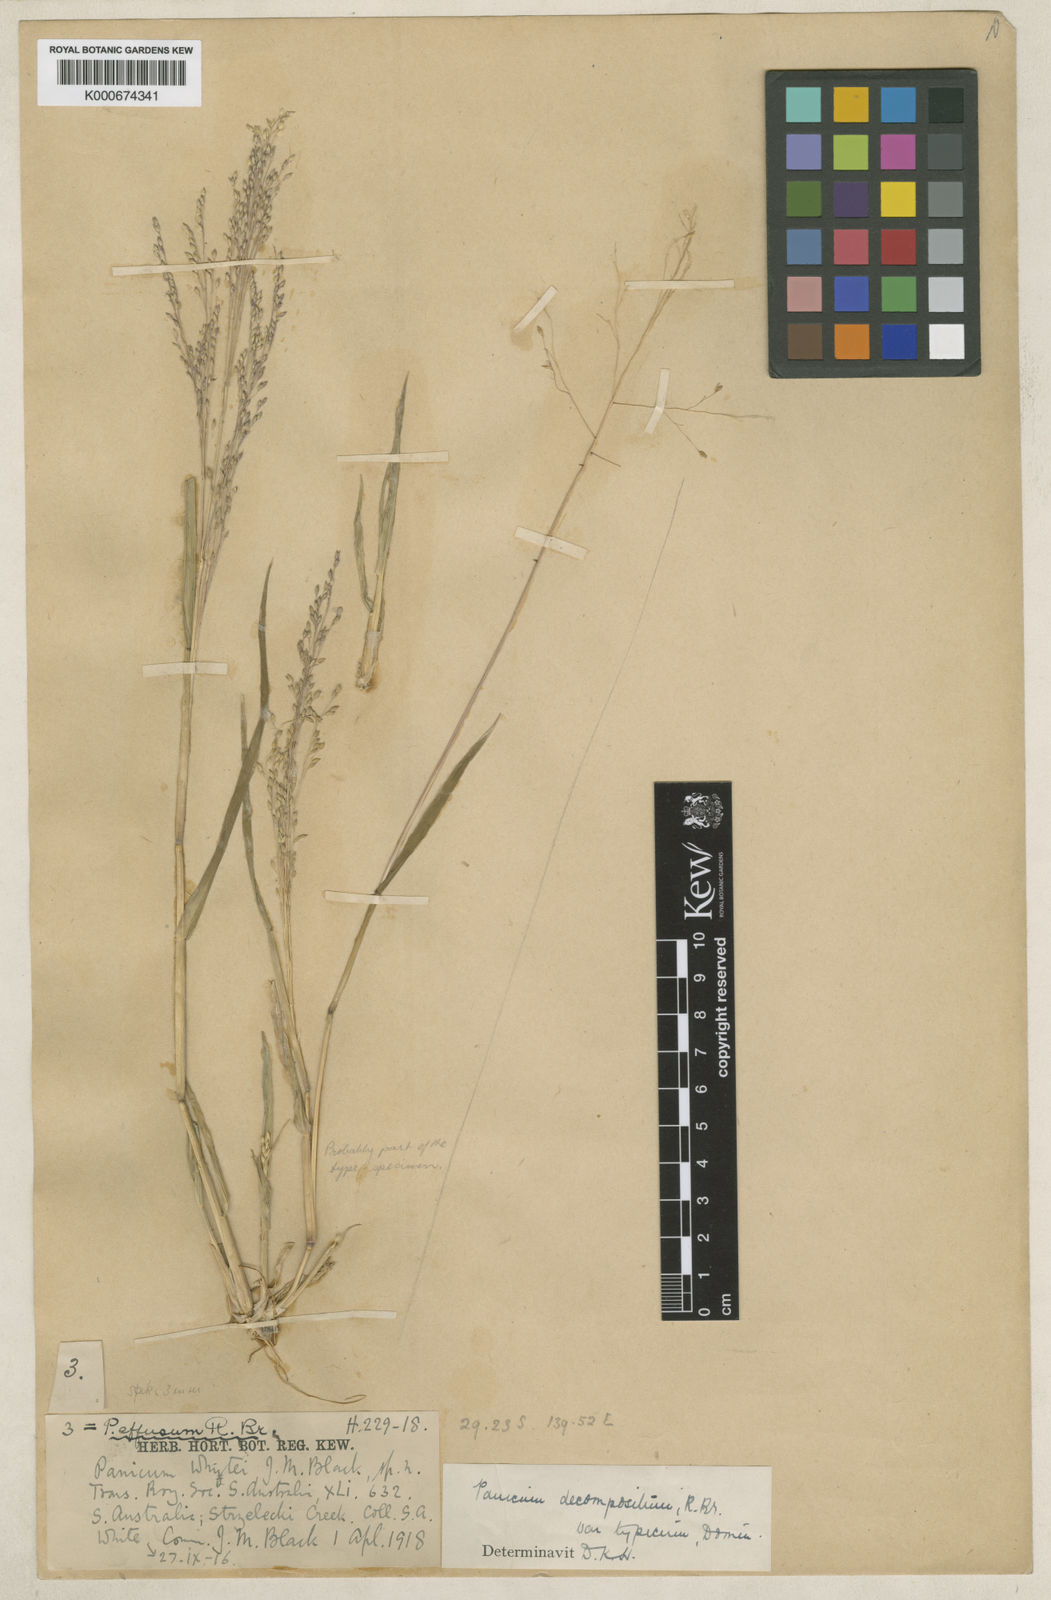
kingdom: Plantae
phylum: Tracheophyta
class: Liliopsida
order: Poales
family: Poaceae
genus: Panicum
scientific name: Panicum laevinode
